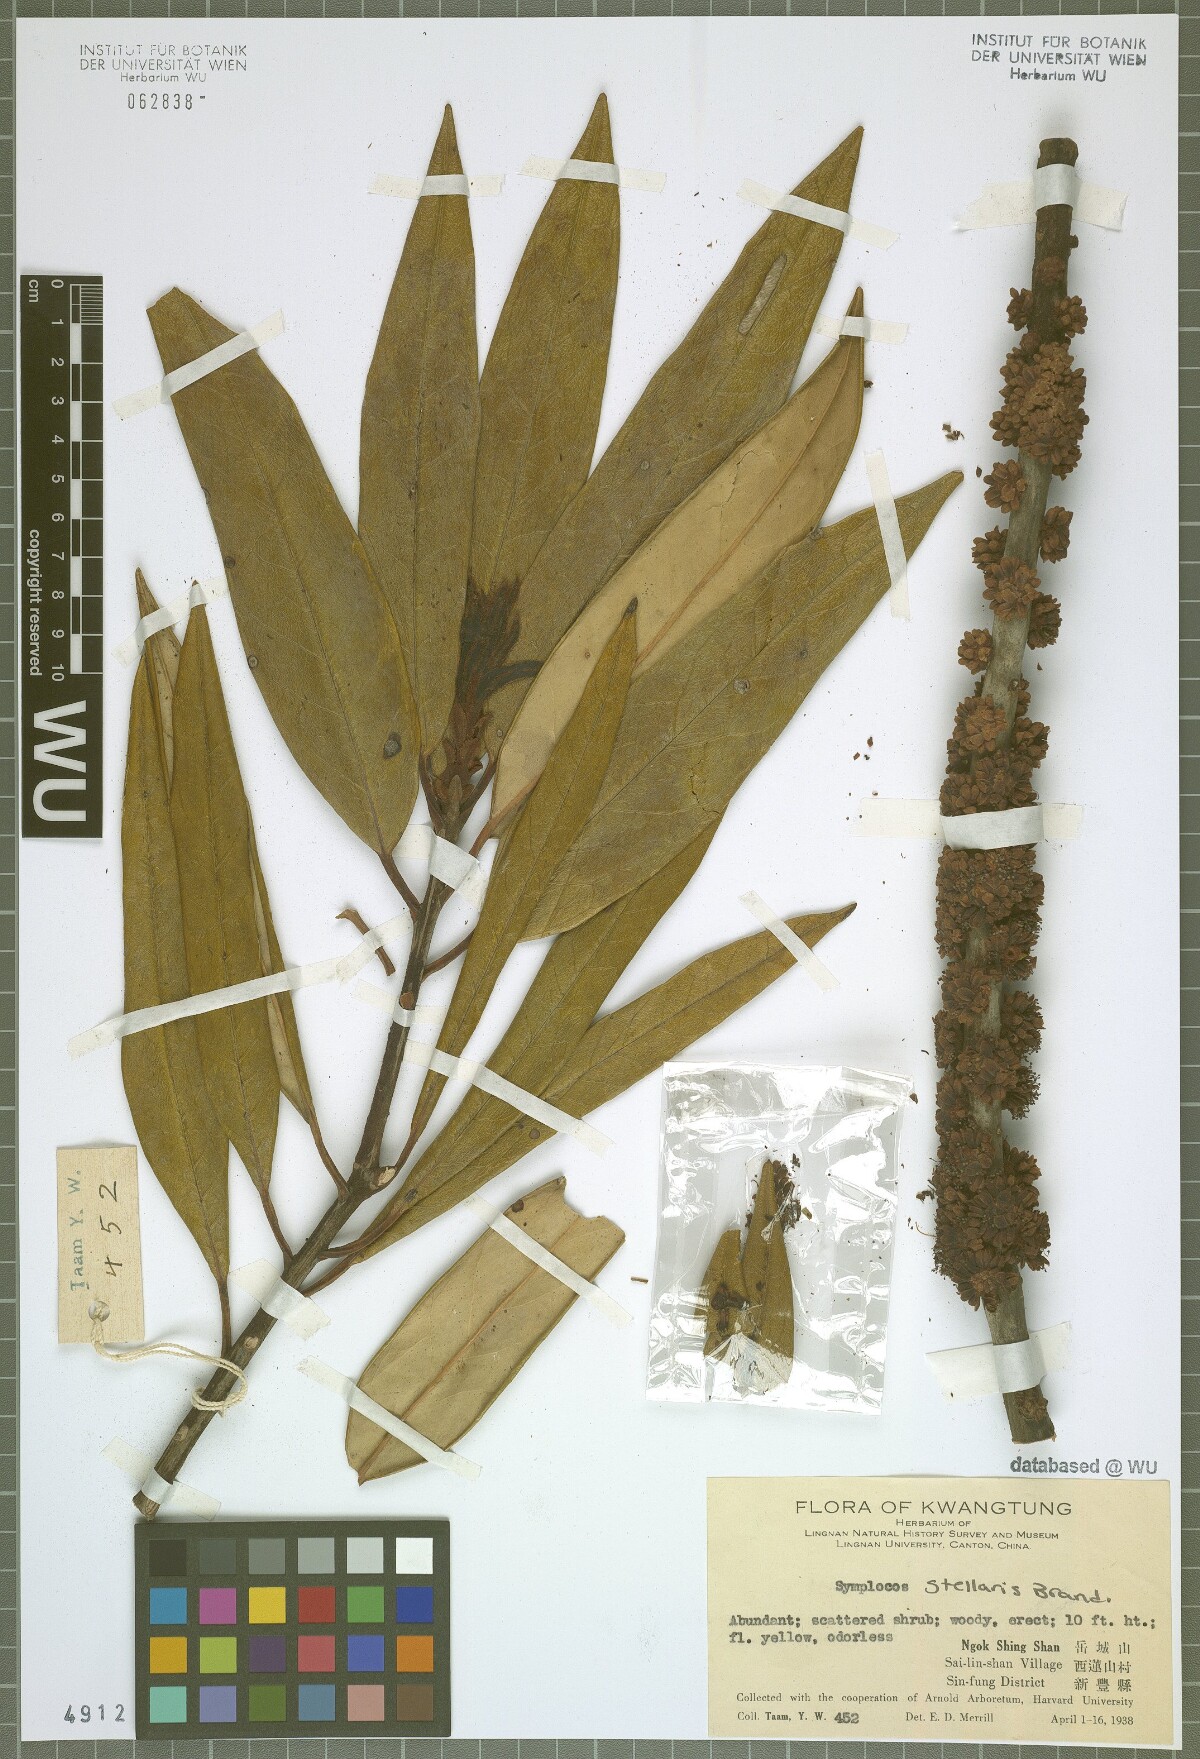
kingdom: Plantae
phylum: Tracheophyta
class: Magnoliopsida
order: Ericales
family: Symplocaceae
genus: Symplocos
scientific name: Symplocos stellaris
